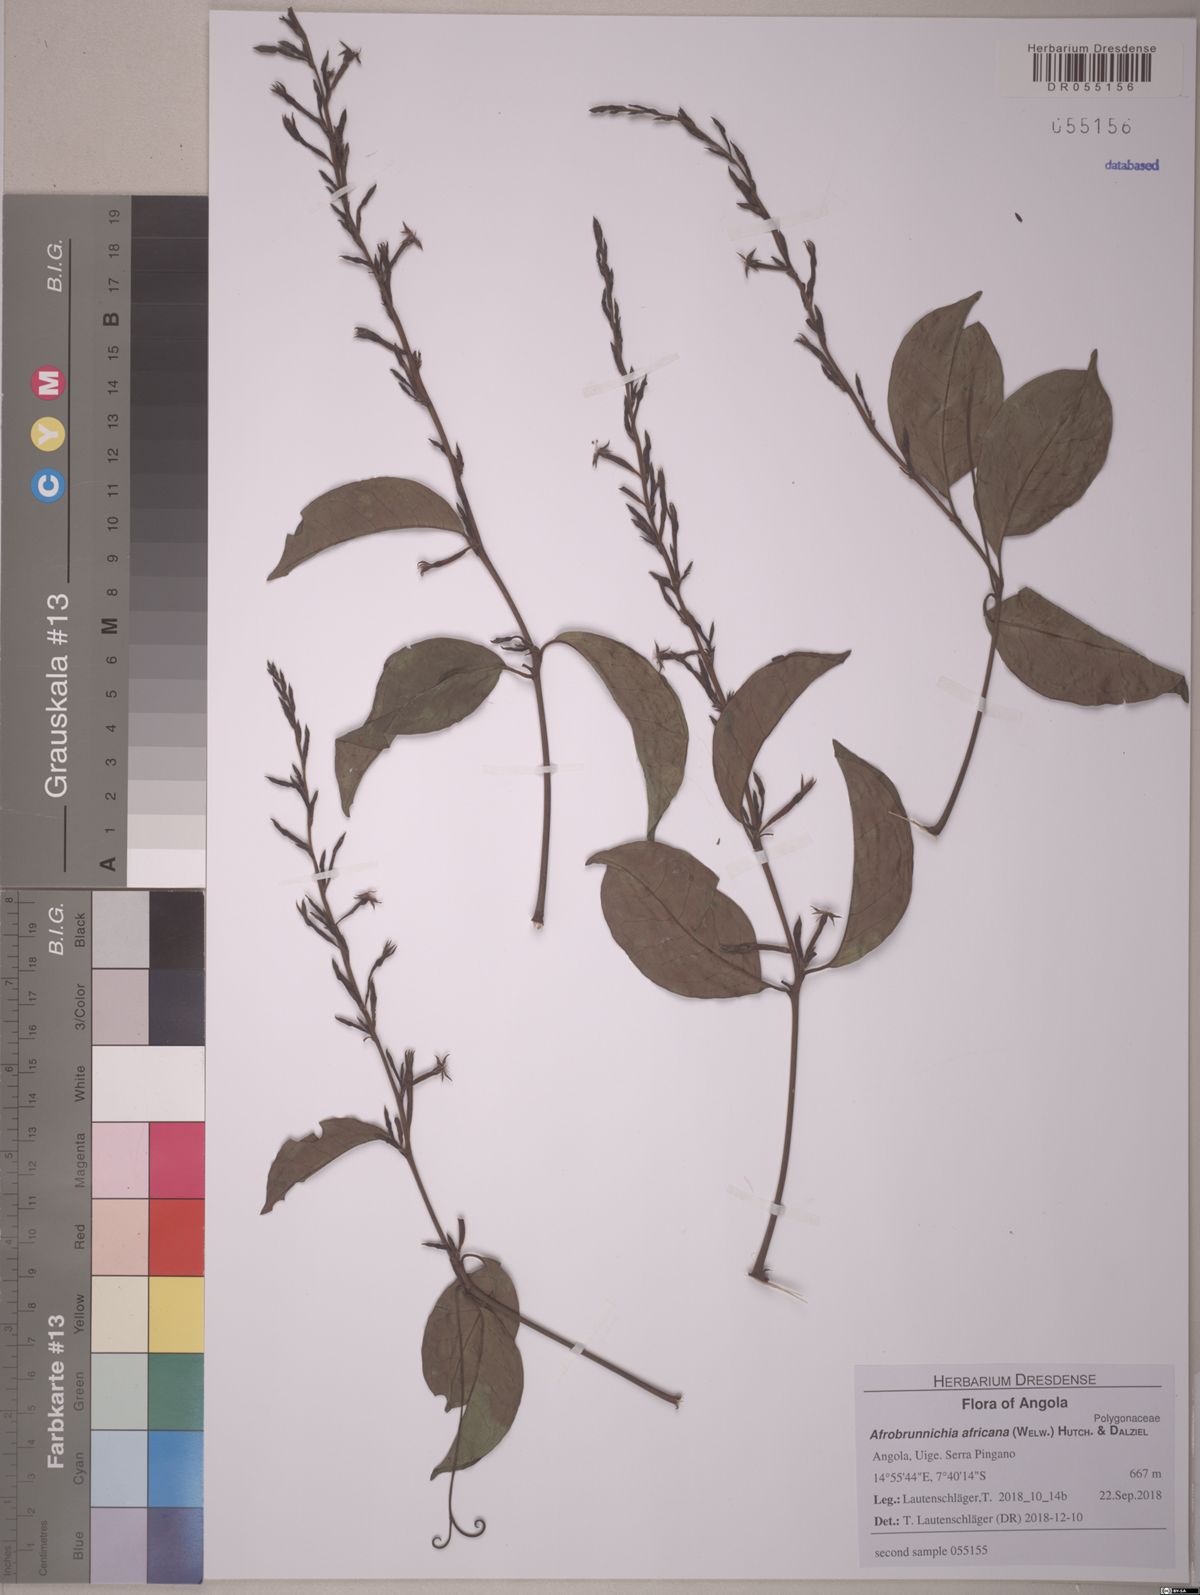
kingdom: Plantae
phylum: Tracheophyta
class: Magnoliopsida
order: Caryophyllales
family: Polygonaceae
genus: Afrobrunnichia
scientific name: Afrobrunnichia africana
